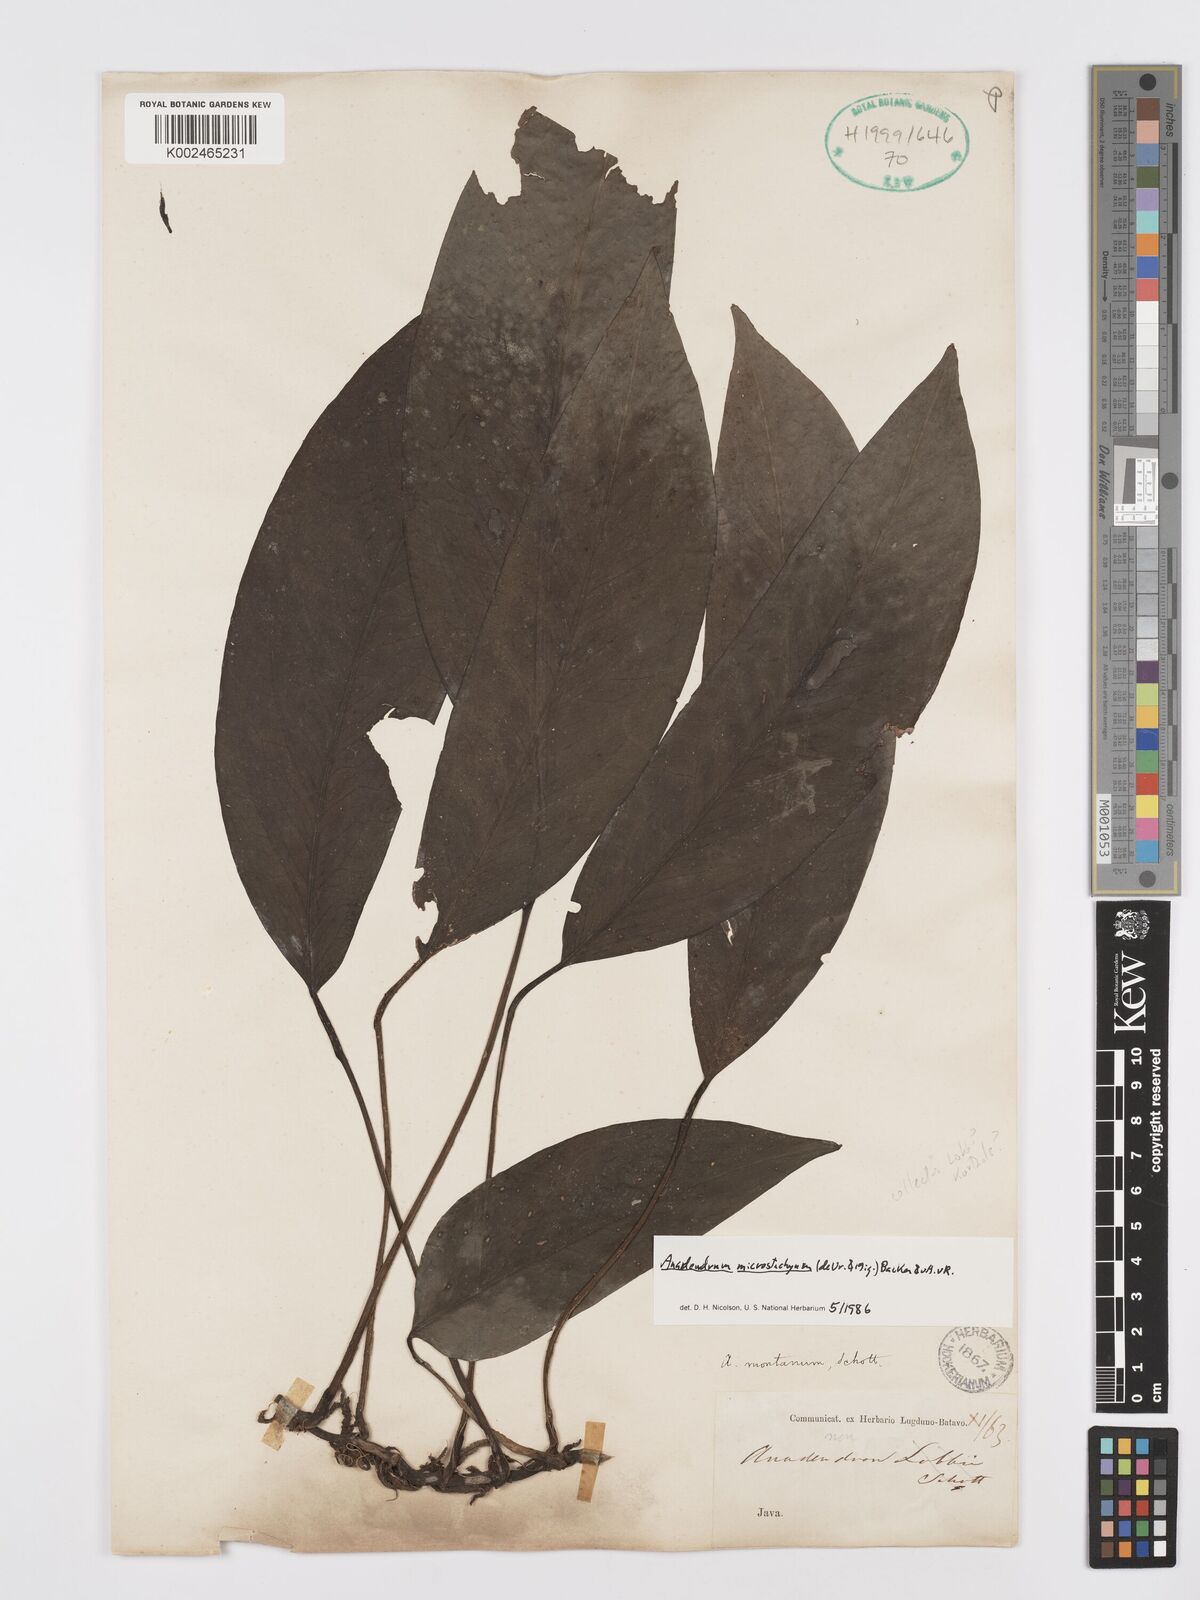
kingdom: Plantae
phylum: Tracheophyta
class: Liliopsida
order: Alismatales
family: Araceae
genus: Anadendrum
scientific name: Anadendrum microstachyum
